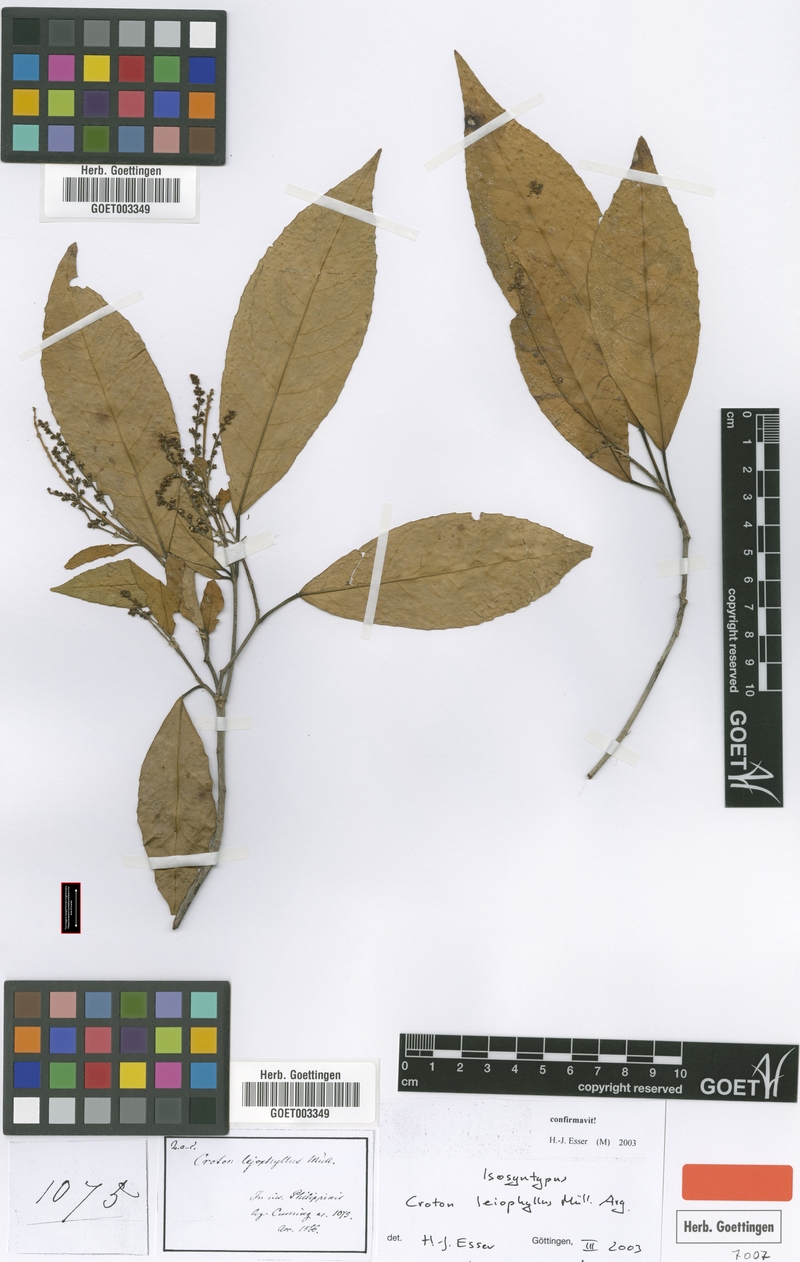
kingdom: Plantae
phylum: Tracheophyta
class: Magnoliopsida
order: Malpighiales
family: Euphorbiaceae
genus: Croton
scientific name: Croton leiophyllus
